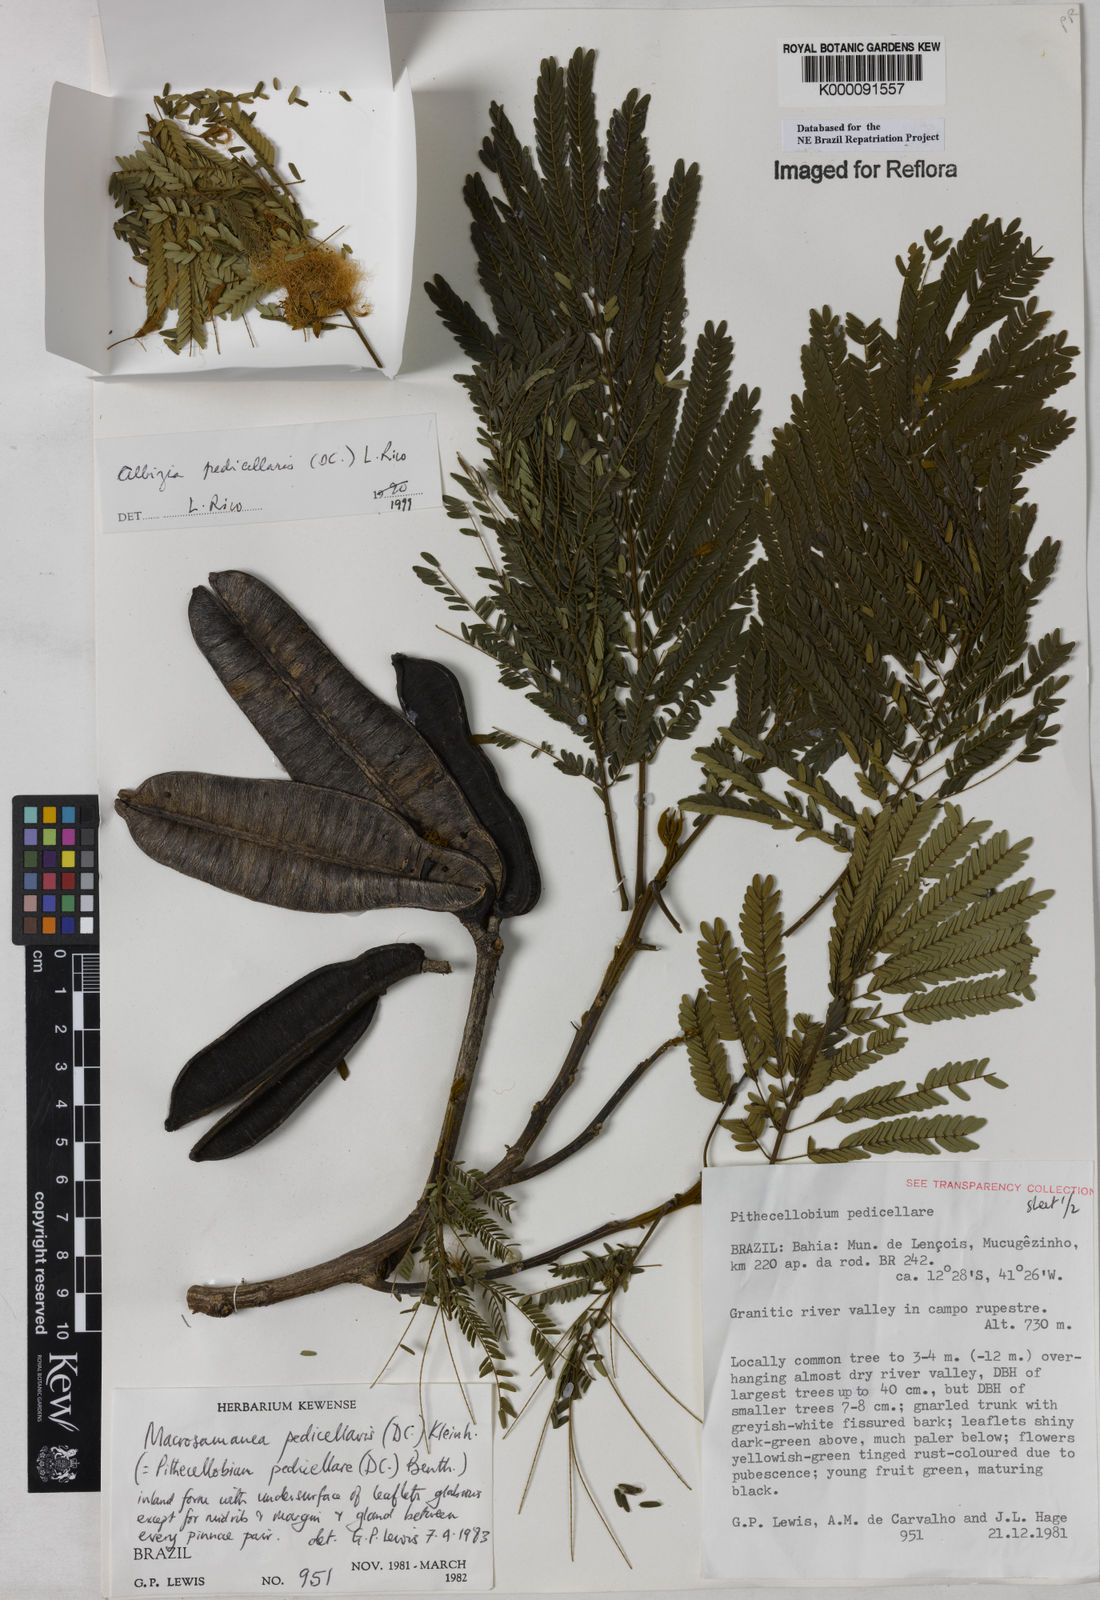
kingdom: Plantae
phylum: Tracheophyta
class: Magnoliopsida
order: Fabales
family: Fabaceae
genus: Balizia
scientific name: Balizia pedicellaris
